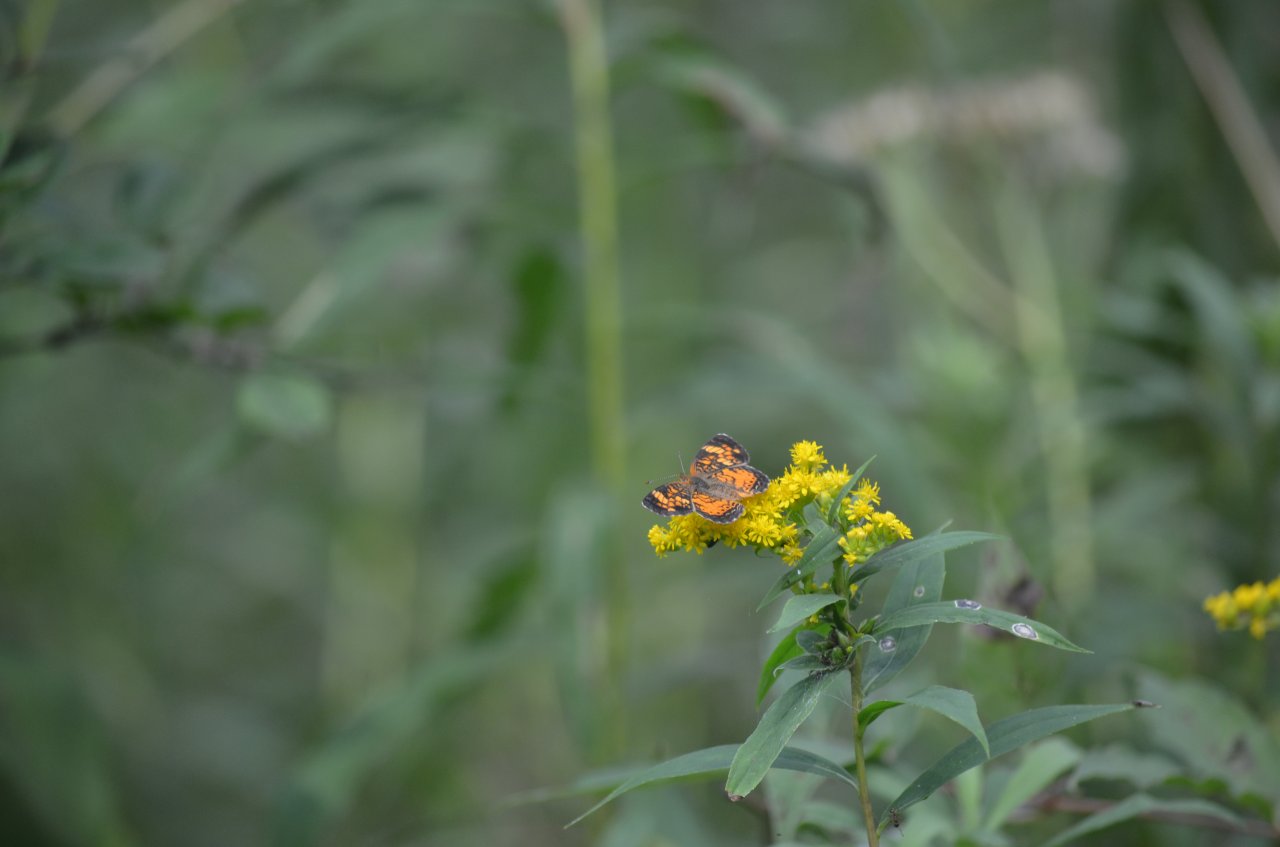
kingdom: Animalia
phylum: Arthropoda
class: Insecta
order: Lepidoptera
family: Nymphalidae
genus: Phyciodes
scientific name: Phyciodes tharos
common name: Northern Crescent
